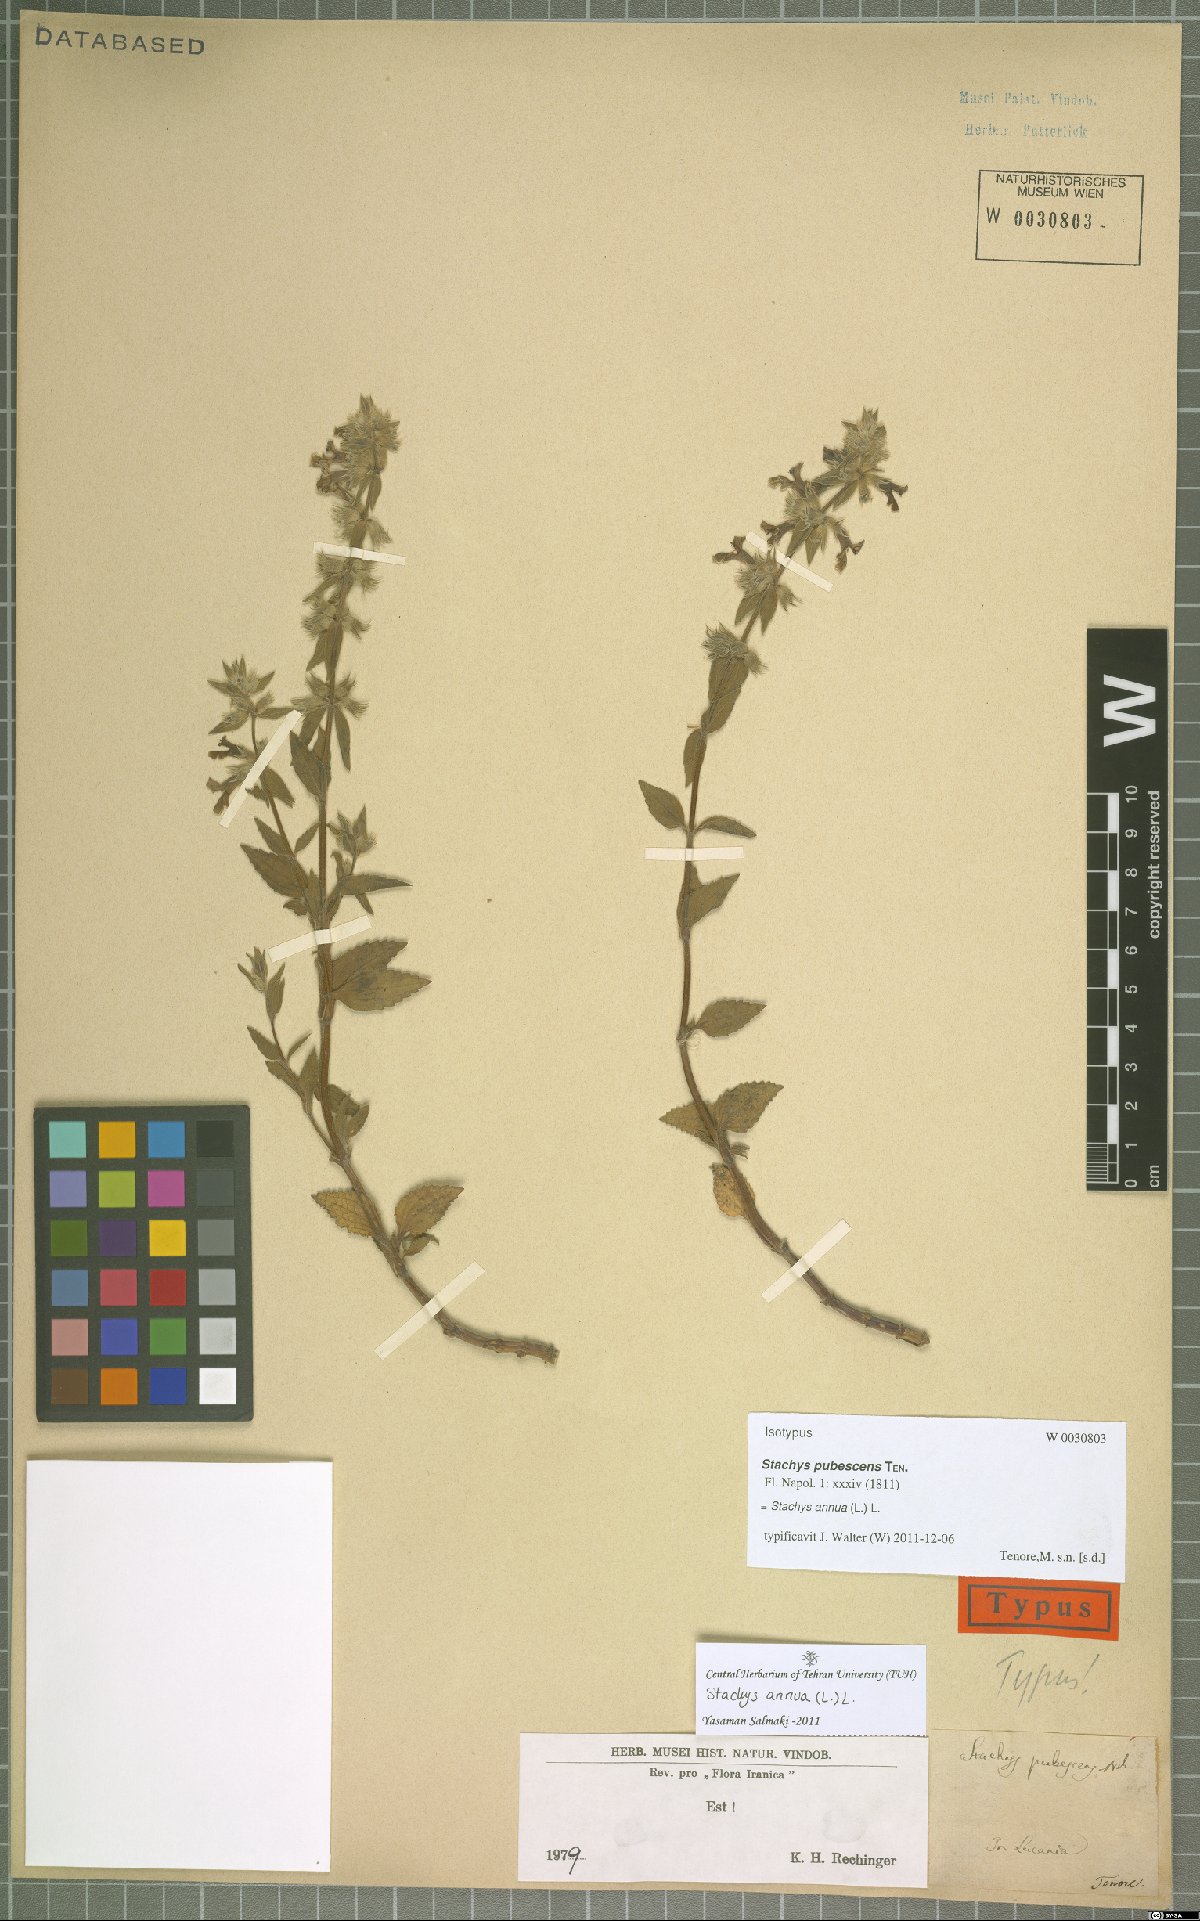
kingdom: Plantae
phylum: Tracheophyta
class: Magnoliopsida
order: Lamiales
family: Lamiaceae
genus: Stachys
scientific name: Stachys annua
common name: Annual yellow-woundwort
